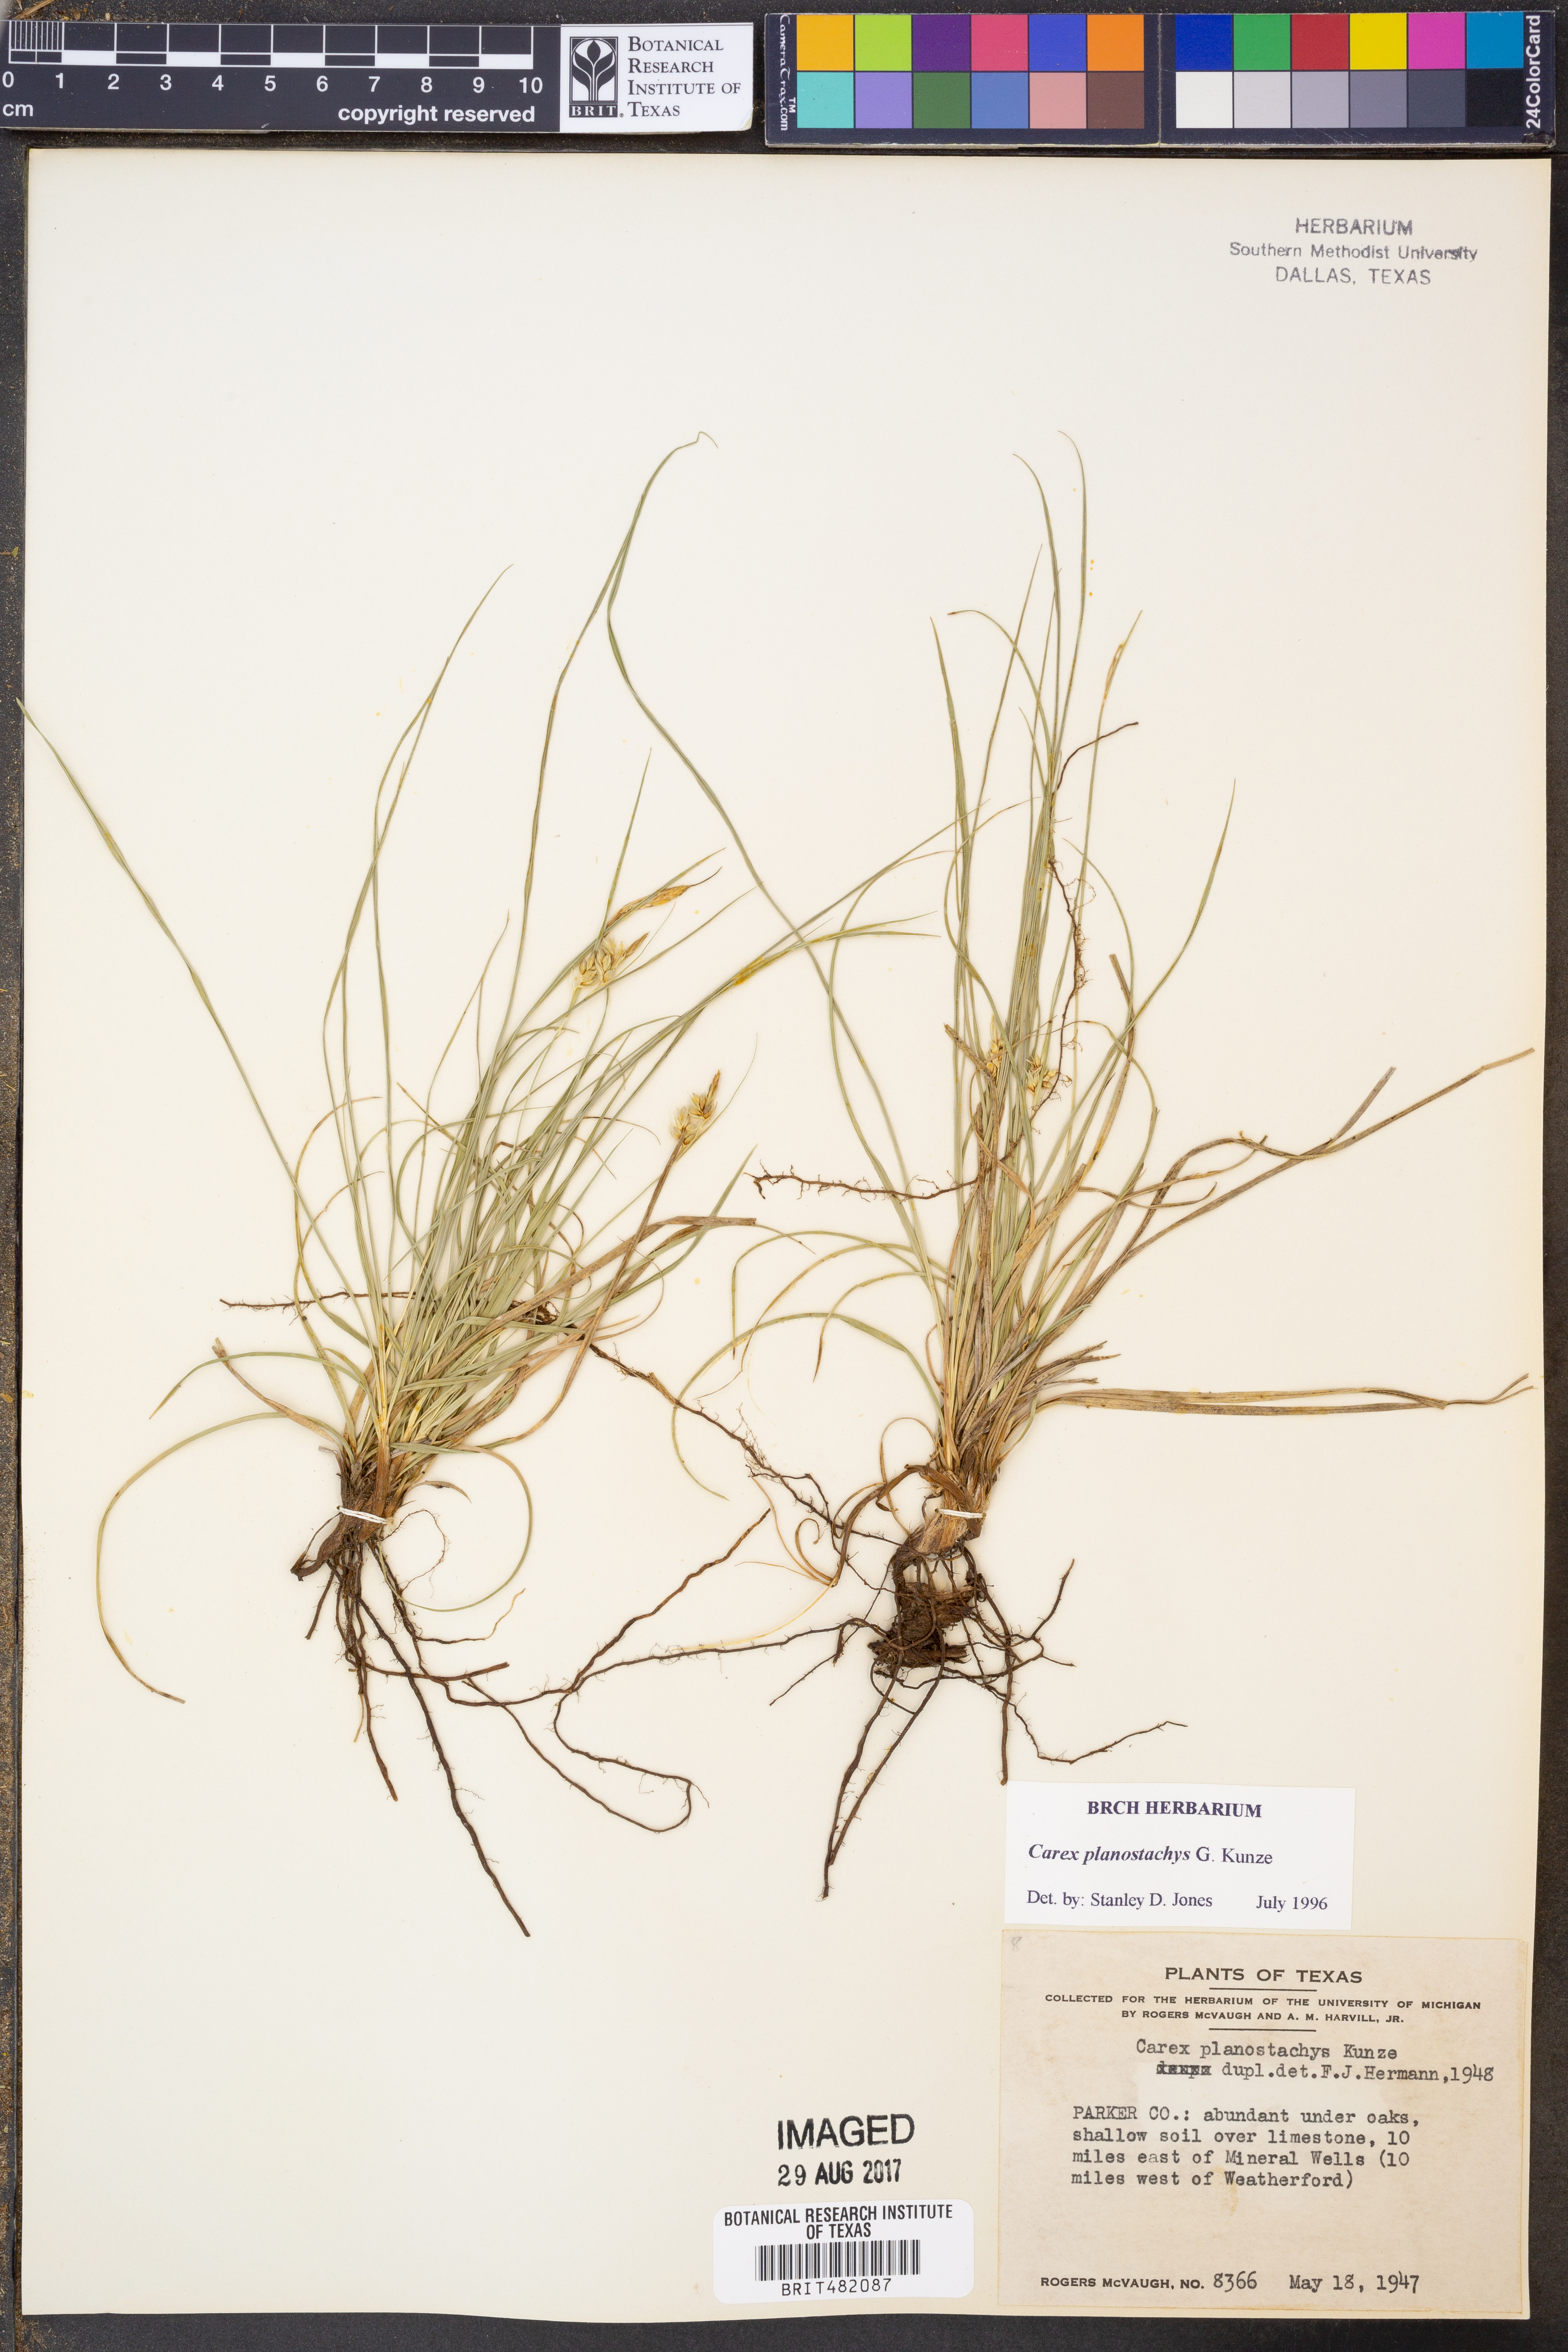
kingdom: Plantae
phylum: Tracheophyta
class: Liliopsida
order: Poales
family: Cyperaceae
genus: Carex
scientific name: Carex planostachys
